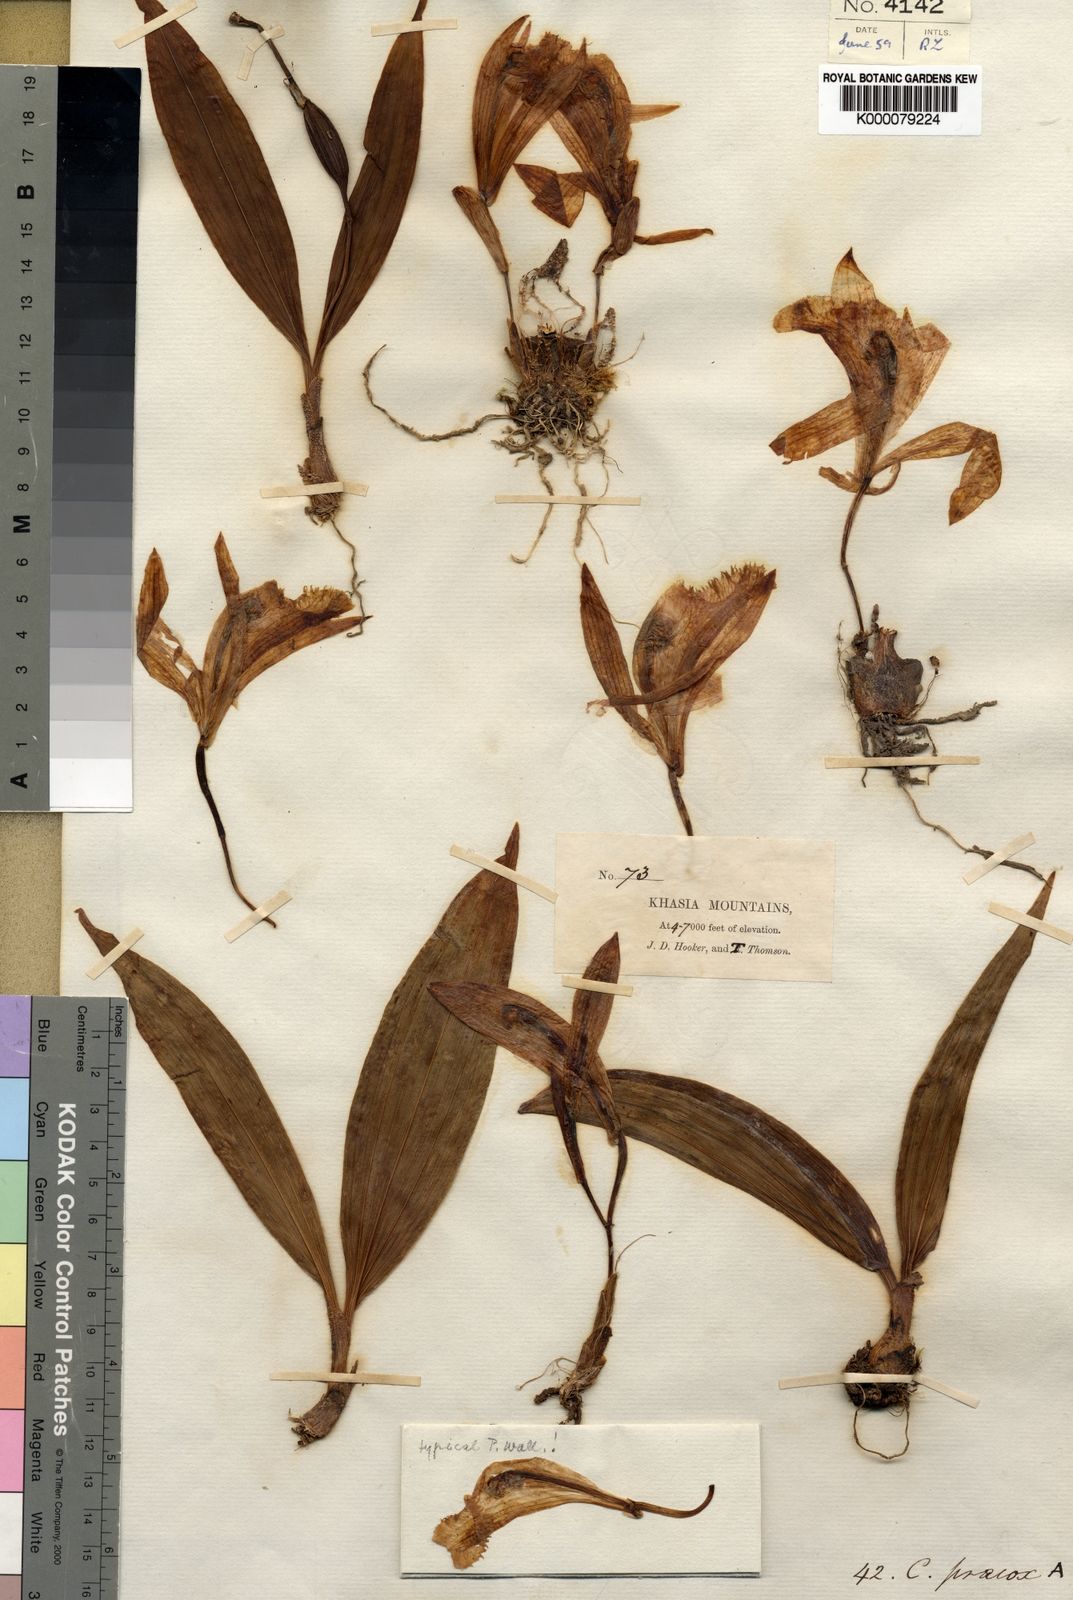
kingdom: Plantae
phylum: Tracheophyta
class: Liliopsida
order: Asparagales
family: Orchidaceae
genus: Pleione
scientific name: Pleione praecox
